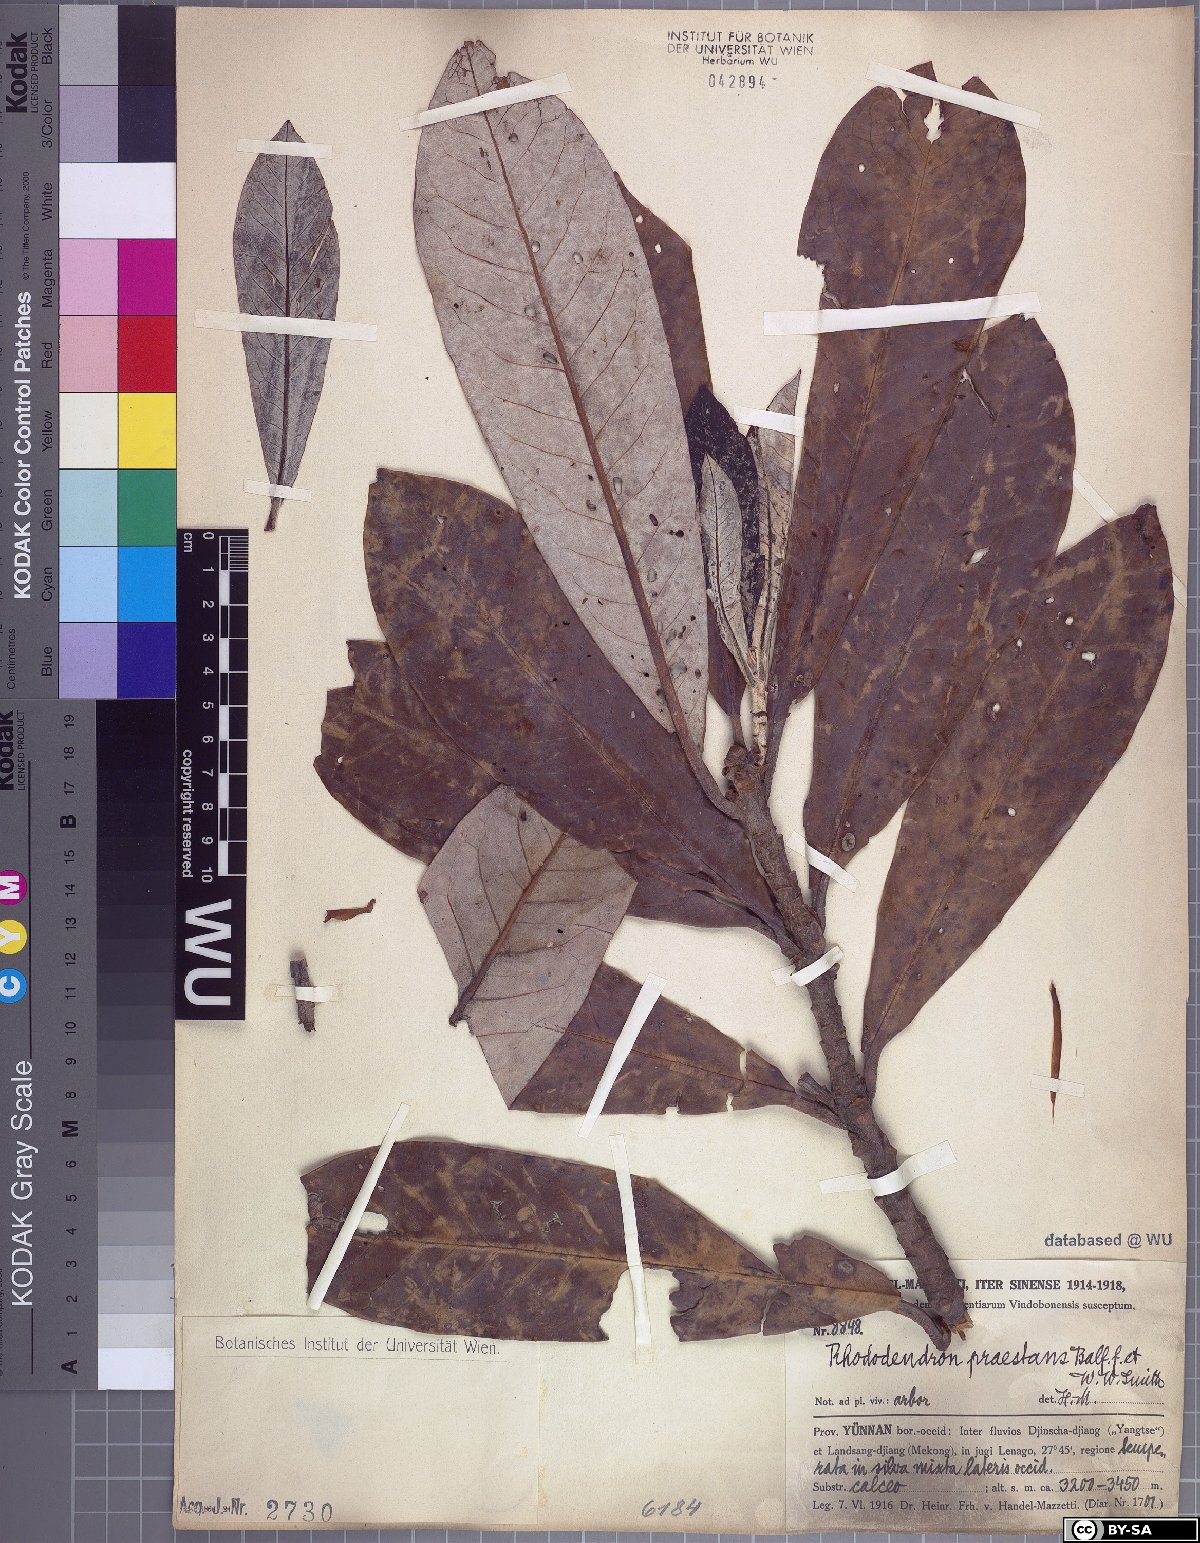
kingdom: Plantae
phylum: Tracheophyta
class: Magnoliopsida
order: Ericales
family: Ericaceae
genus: Rhododendron
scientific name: Rhododendron praestans
